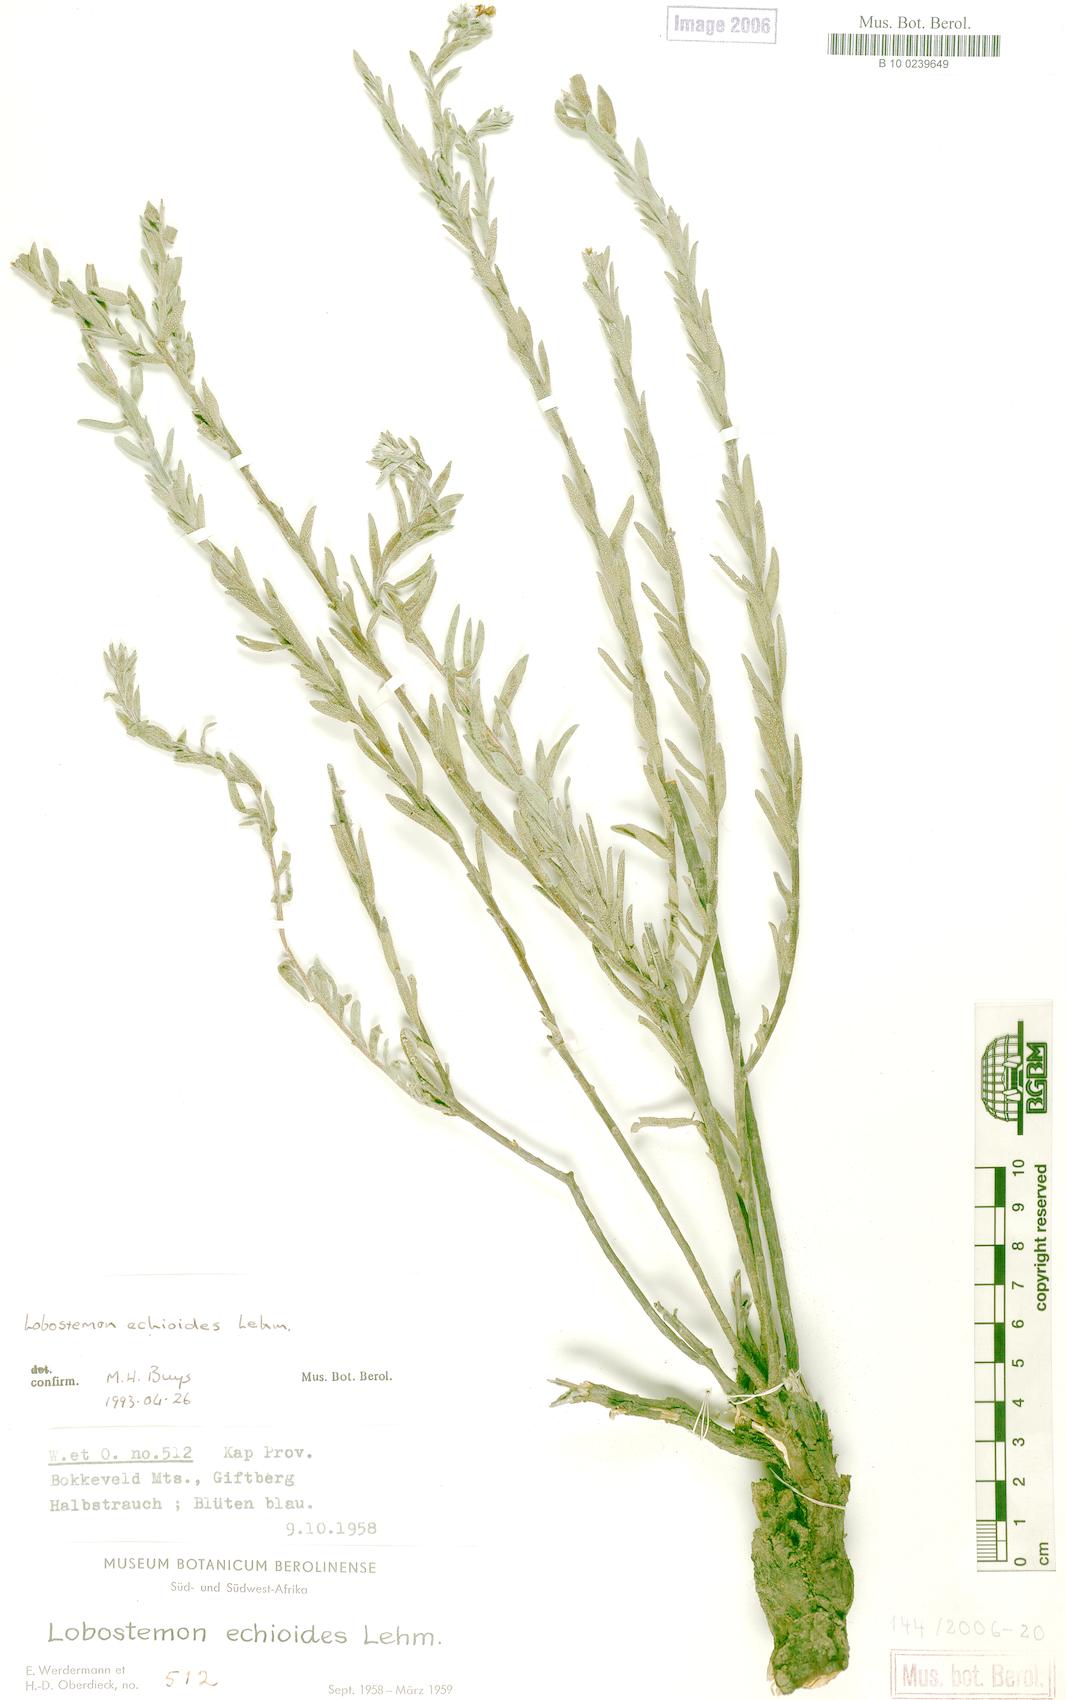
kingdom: Plantae
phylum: Tracheophyta
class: Magnoliopsida
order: Boraginales
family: Boraginaceae
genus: Lobostemon
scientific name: Lobostemon echioides
